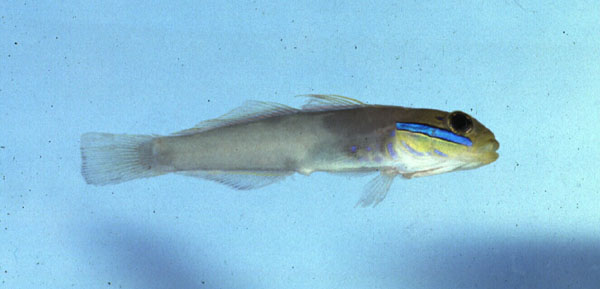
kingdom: Animalia
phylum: Chordata
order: Perciformes
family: Gobiidae
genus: Valenciennea
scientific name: Valenciennea strigata
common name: Blueband goby
